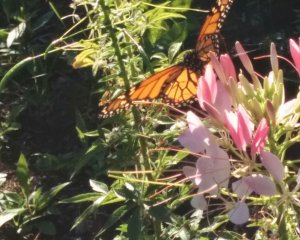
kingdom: Animalia
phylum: Arthropoda
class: Insecta
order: Lepidoptera
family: Nymphalidae
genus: Danaus
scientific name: Danaus plexippus
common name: Monarch
